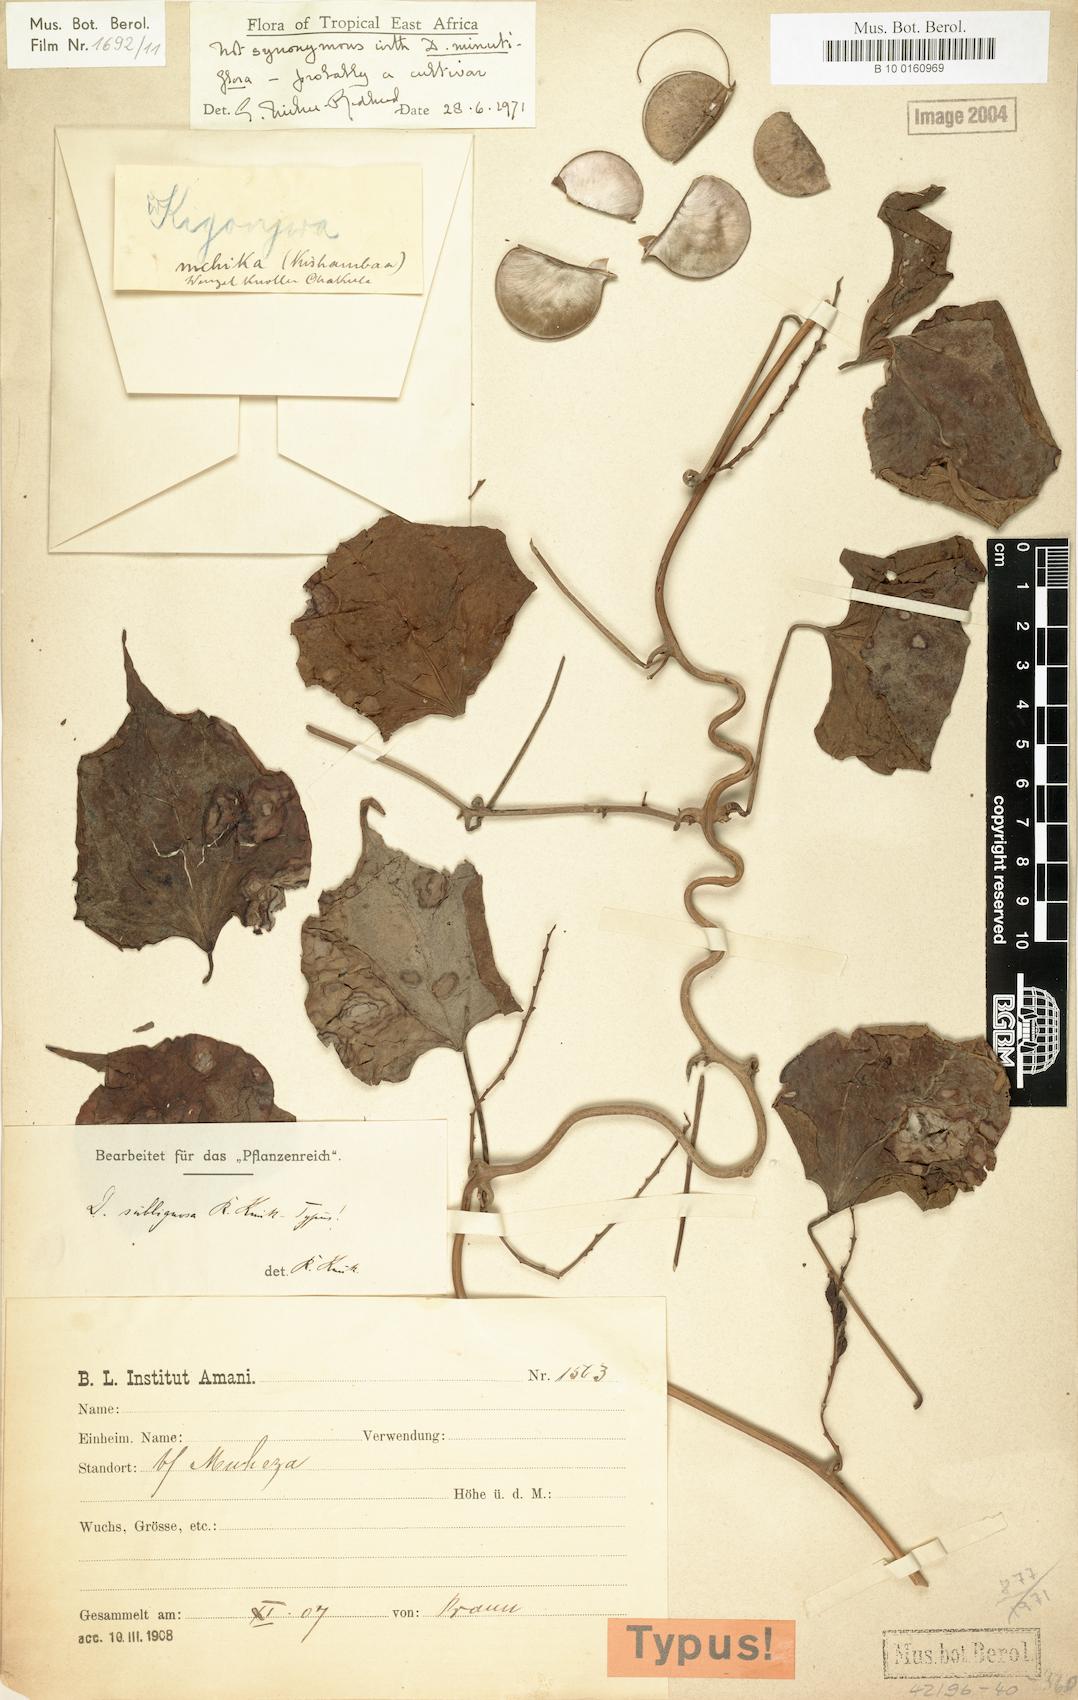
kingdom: Plantae
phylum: Tracheophyta
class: Liliopsida
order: Dioscoreales
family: Dioscoreaceae
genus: Dioscorea
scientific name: Dioscorea minutiflora
